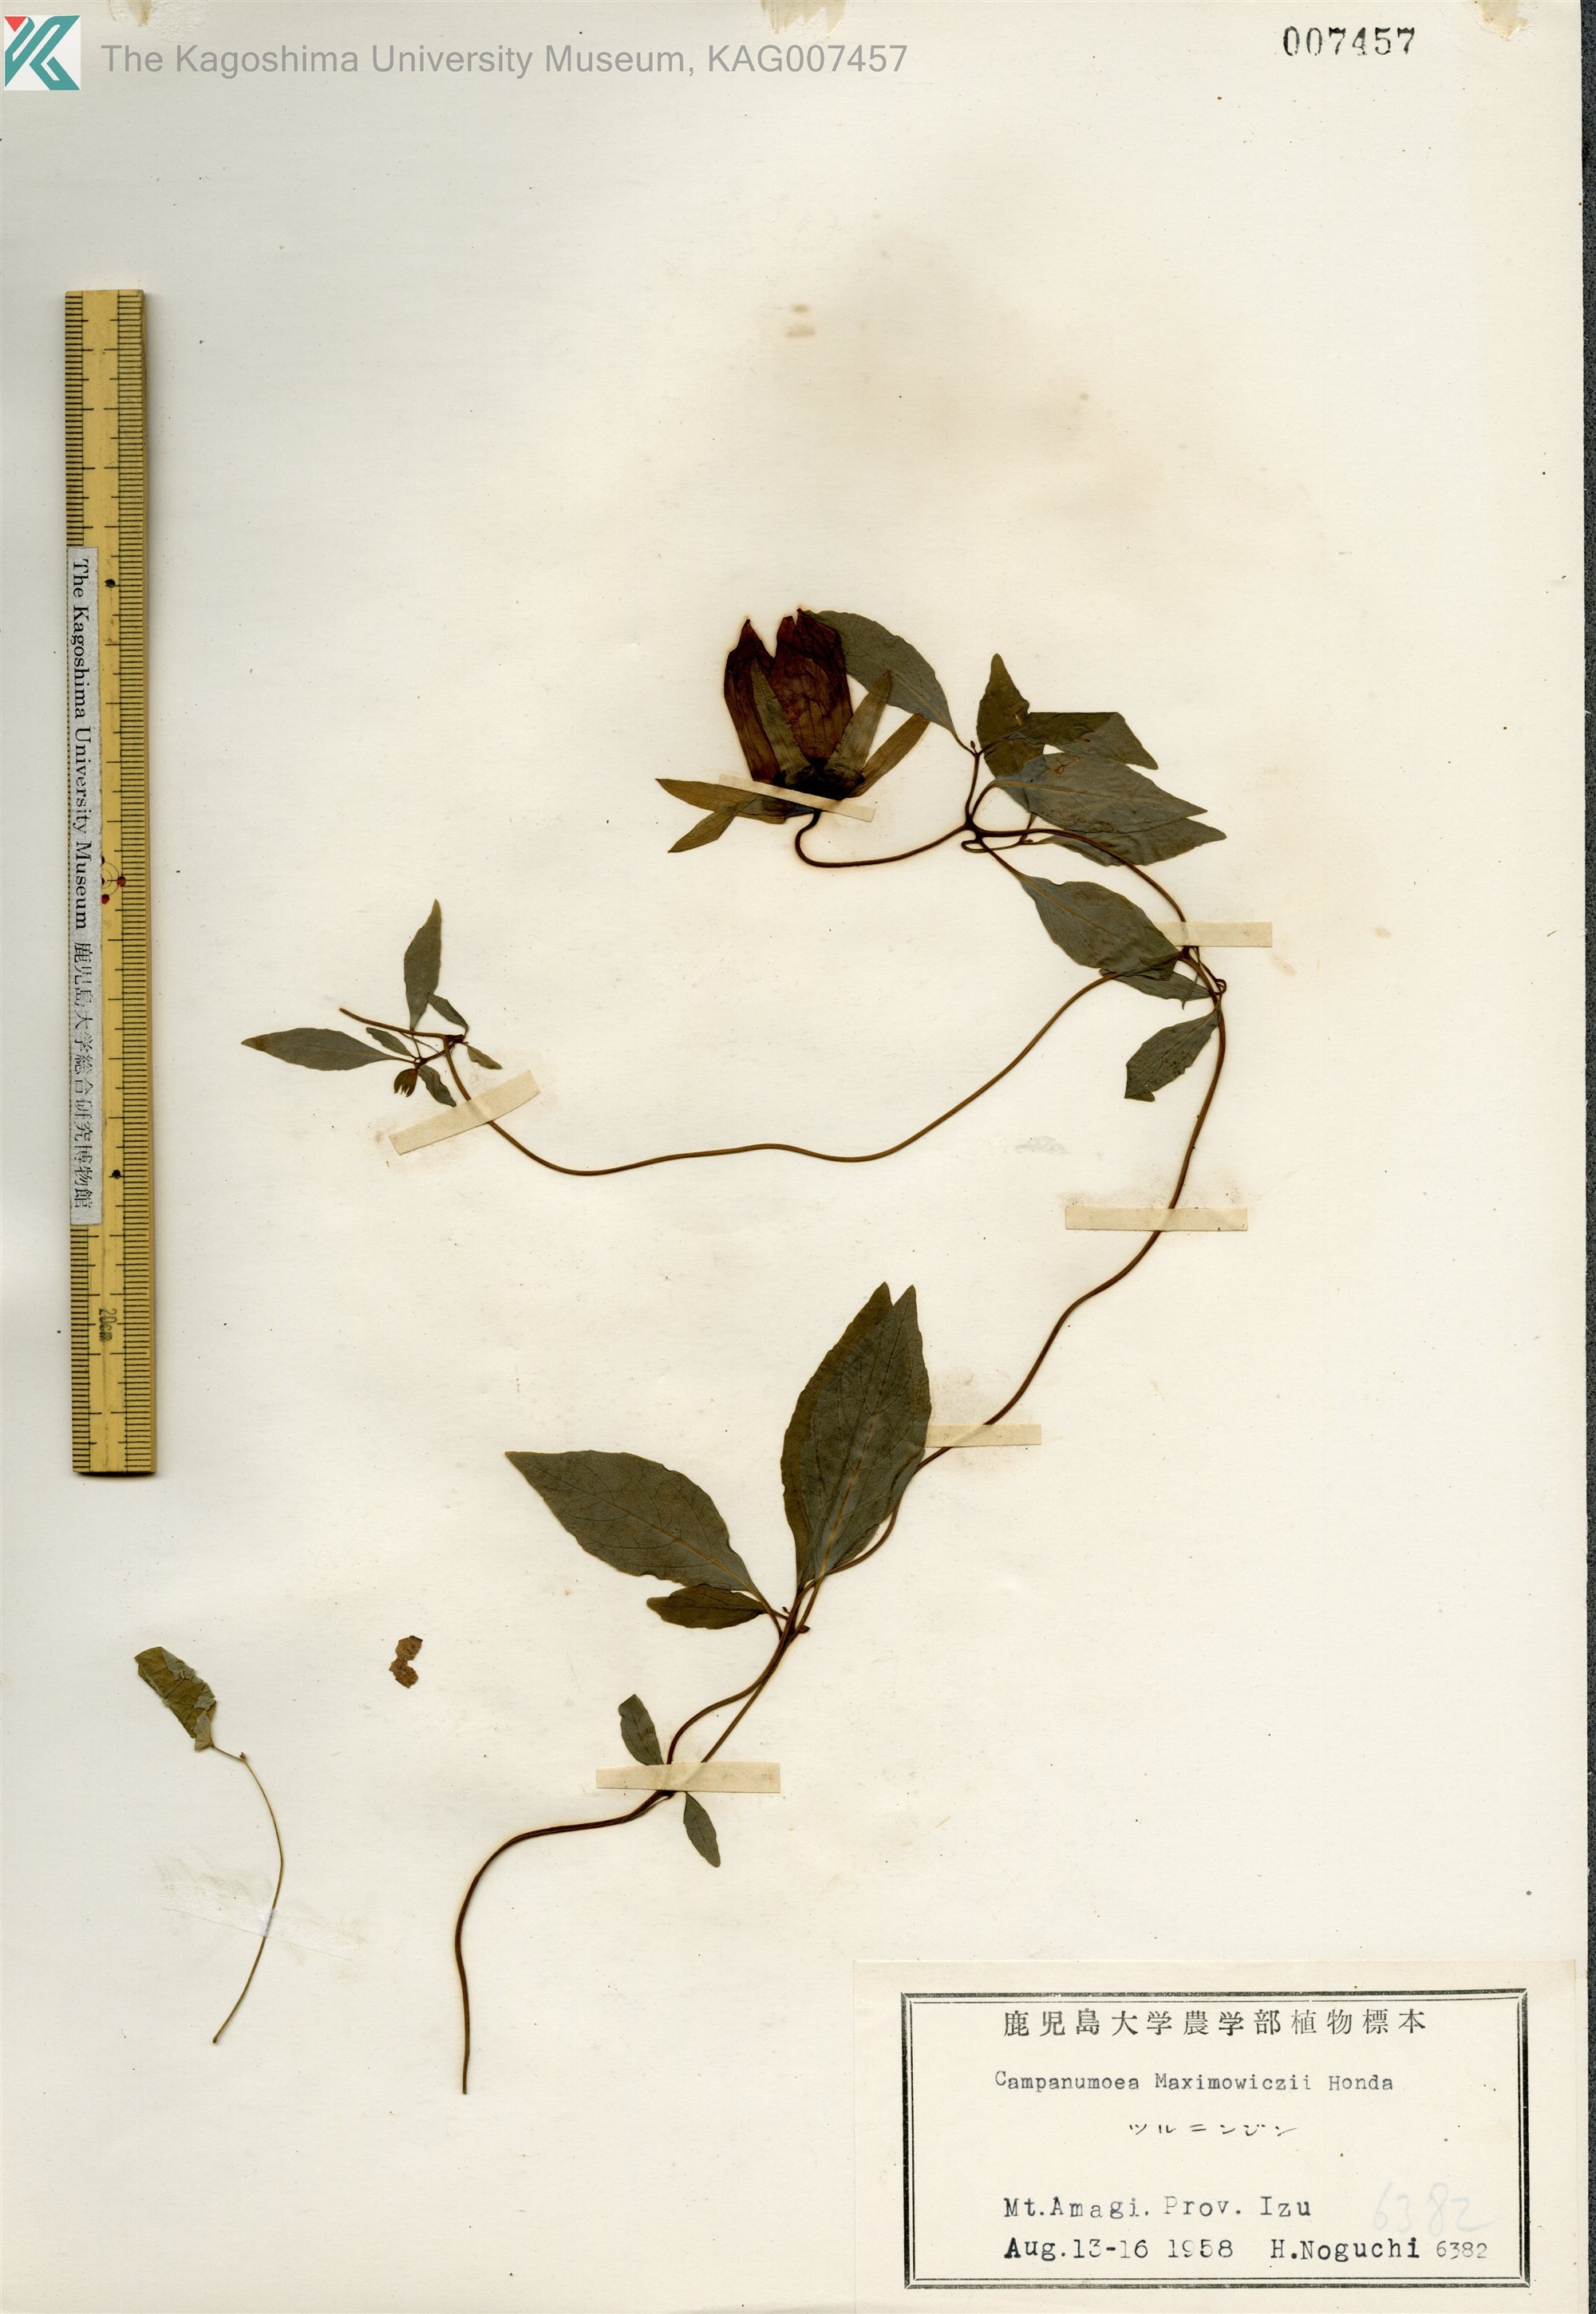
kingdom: Plantae
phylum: Tracheophyta
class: Magnoliopsida
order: Asterales
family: Campanulaceae
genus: Codonopsis
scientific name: Codonopsis lanceolata
